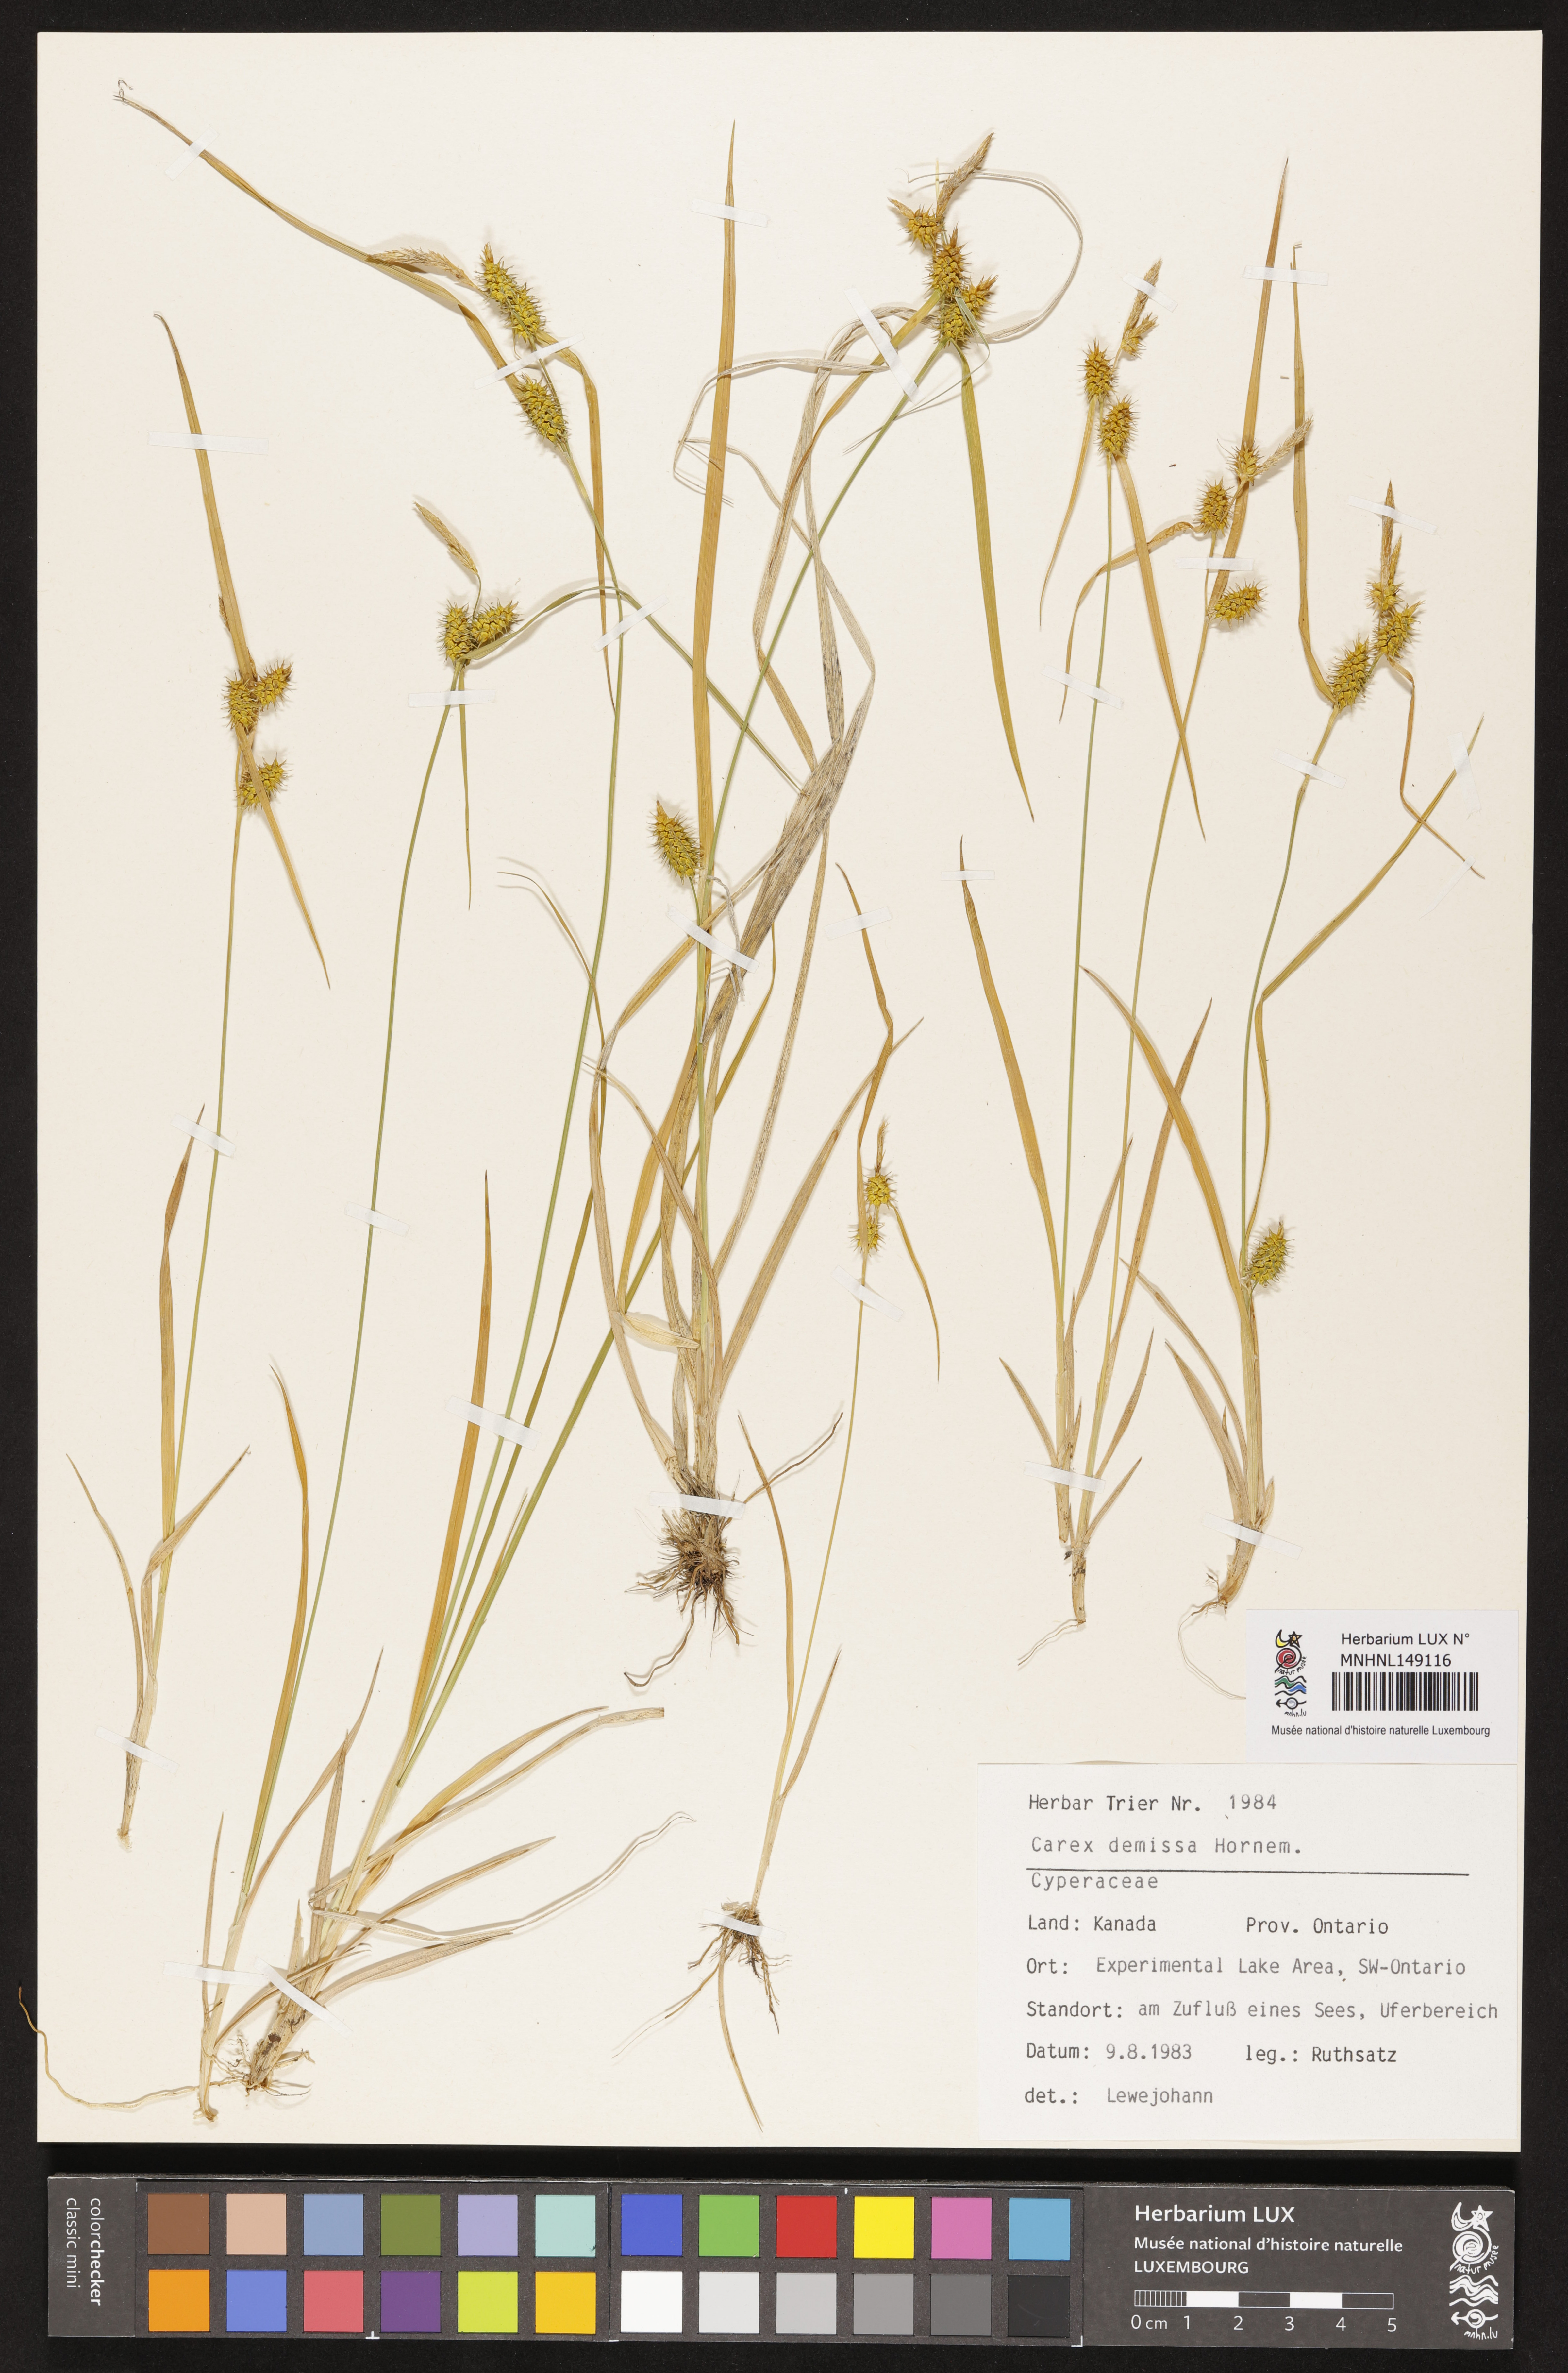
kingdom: Plantae
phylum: Tracheophyta
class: Liliopsida
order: Poales
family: Cyperaceae
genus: Carex
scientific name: Carex demissa
